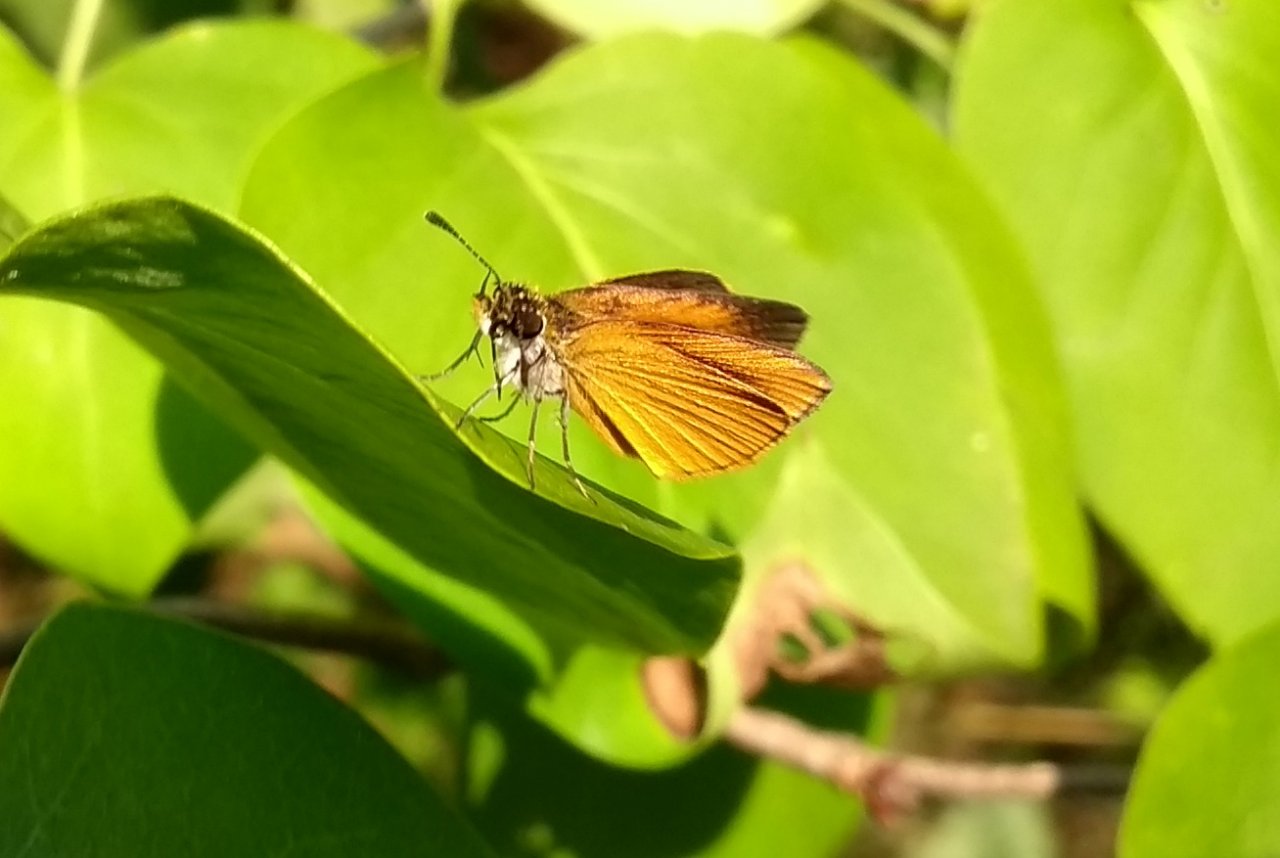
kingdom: Animalia
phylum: Arthropoda
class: Insecta
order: Lepidoptera
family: Hesperiidae
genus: Ancyloxypha
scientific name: Ancyloxypha numitor
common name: Least Skipper
